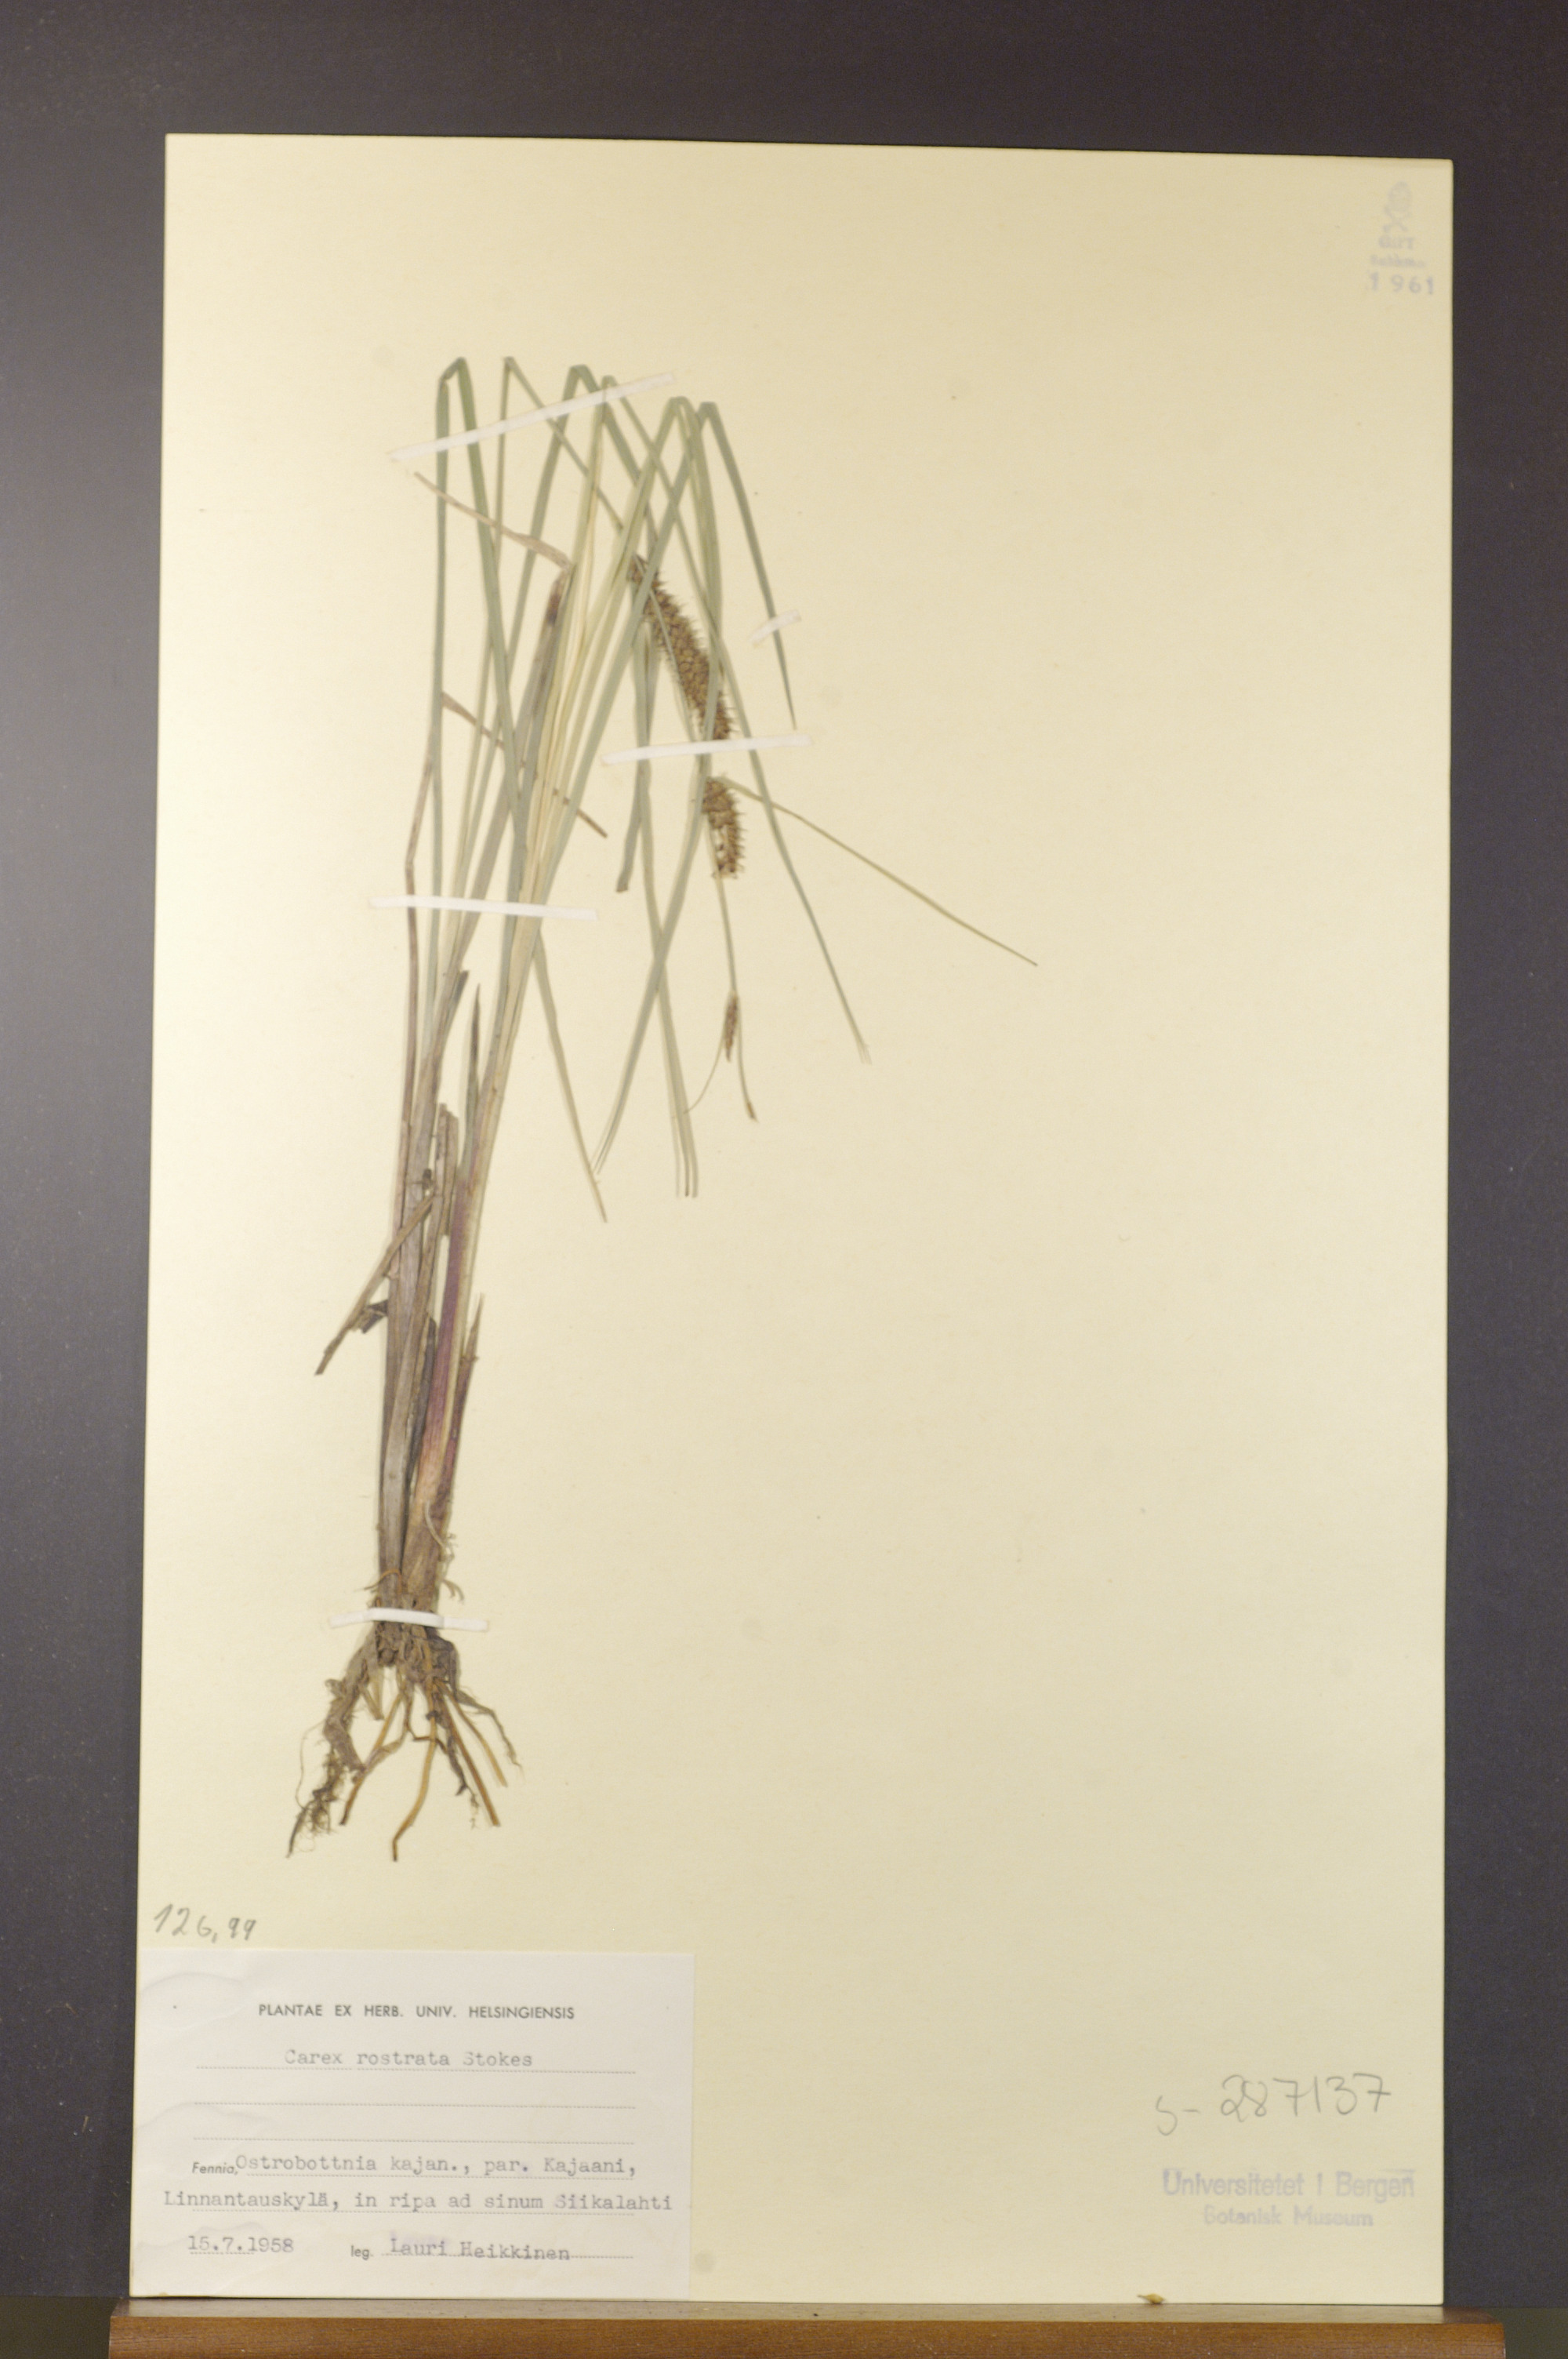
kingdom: Plantae
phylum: Tracheophyta
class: Liliopsida
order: Poales
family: Cyperaceae
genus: Carex
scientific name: Carex rostrata
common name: Bottle sedge
